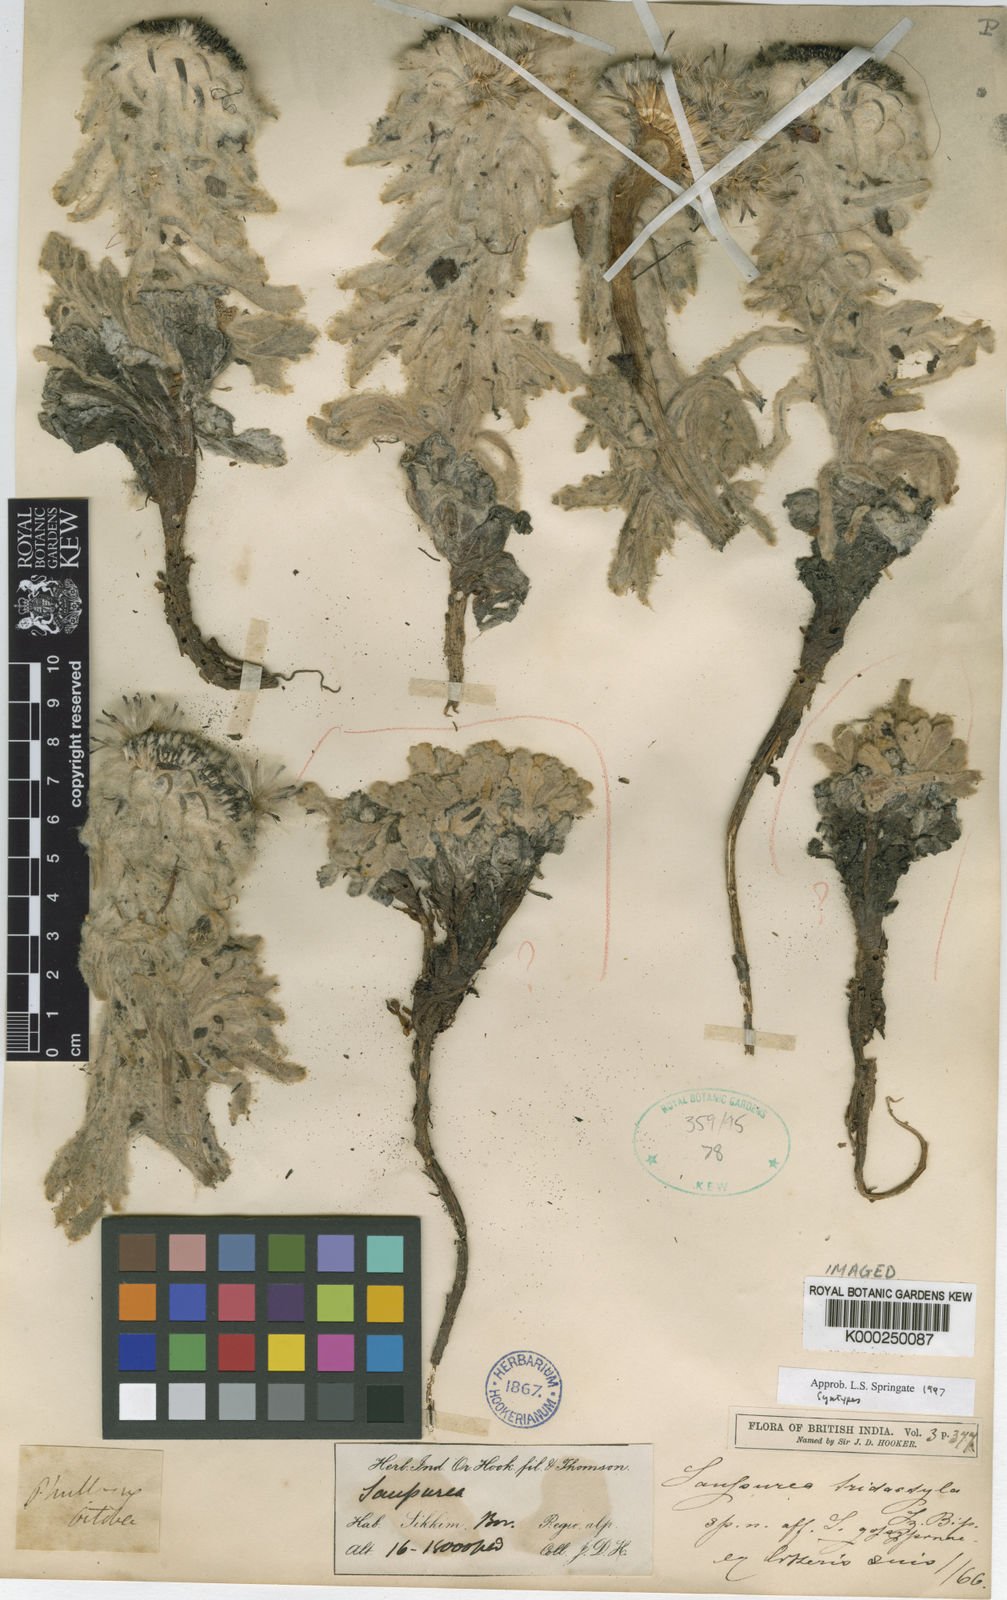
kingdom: Plantae
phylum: Tracheophyta
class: Magnoliopsida
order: Asterales
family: Asteraceae
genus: Saussurea
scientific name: Saussurea tridactyla
